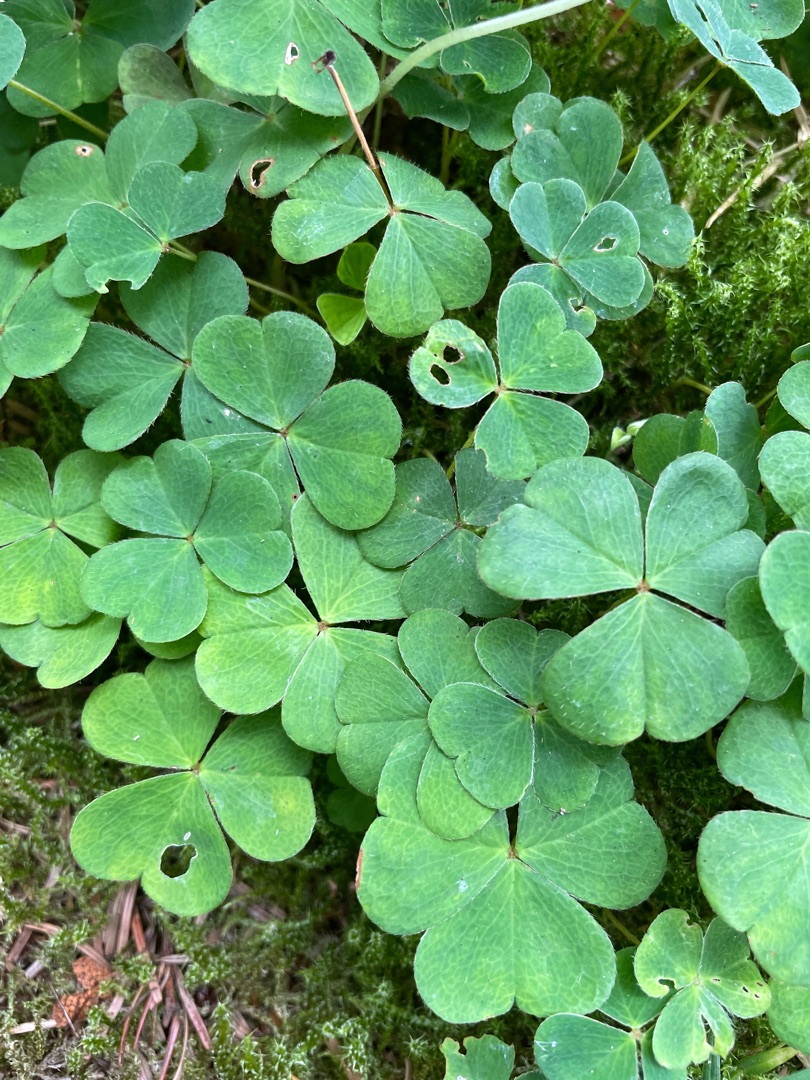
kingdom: Plantae
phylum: Tracheophyta
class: Magnoliopsida
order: Oxalidales
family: Oxalidaceae
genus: Oxalis
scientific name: Oxalis acetosella
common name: Skovsyre
